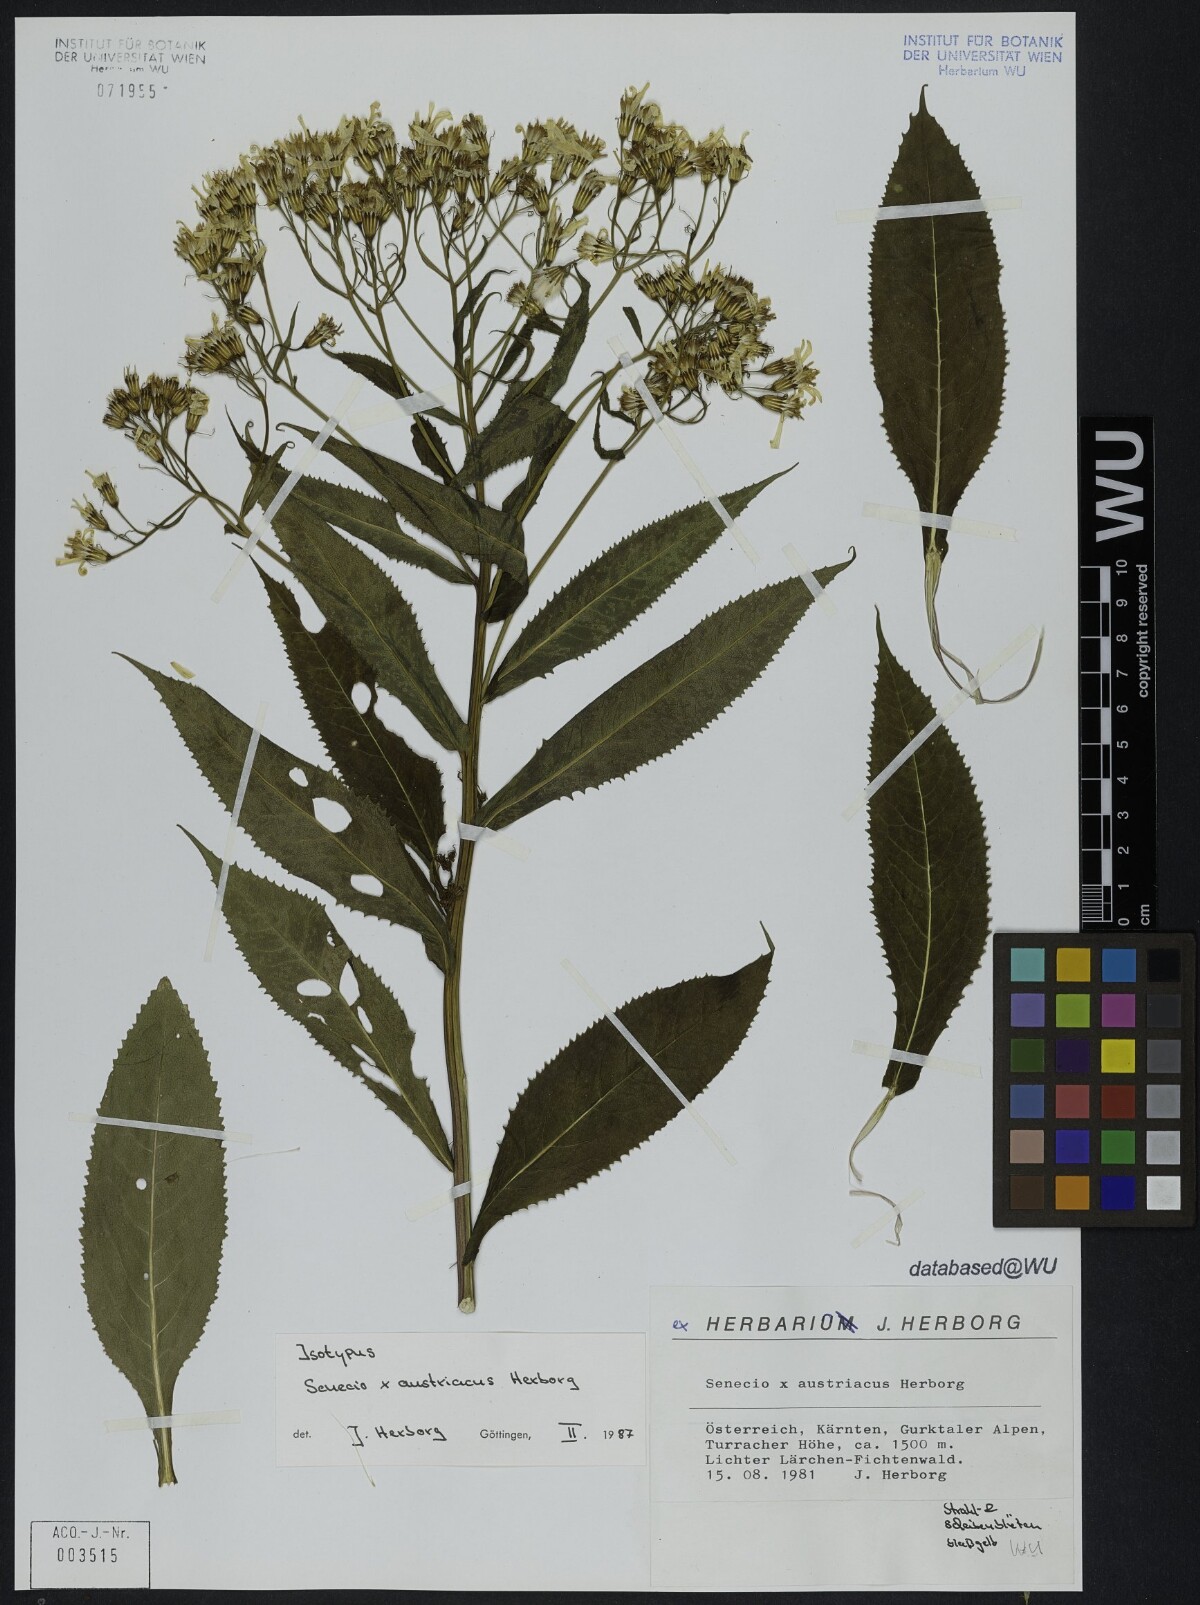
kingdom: Plantae
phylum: Tracheophyta
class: Magnoliopsida
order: Asterales
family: Asteraceae
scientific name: Asteraceae
